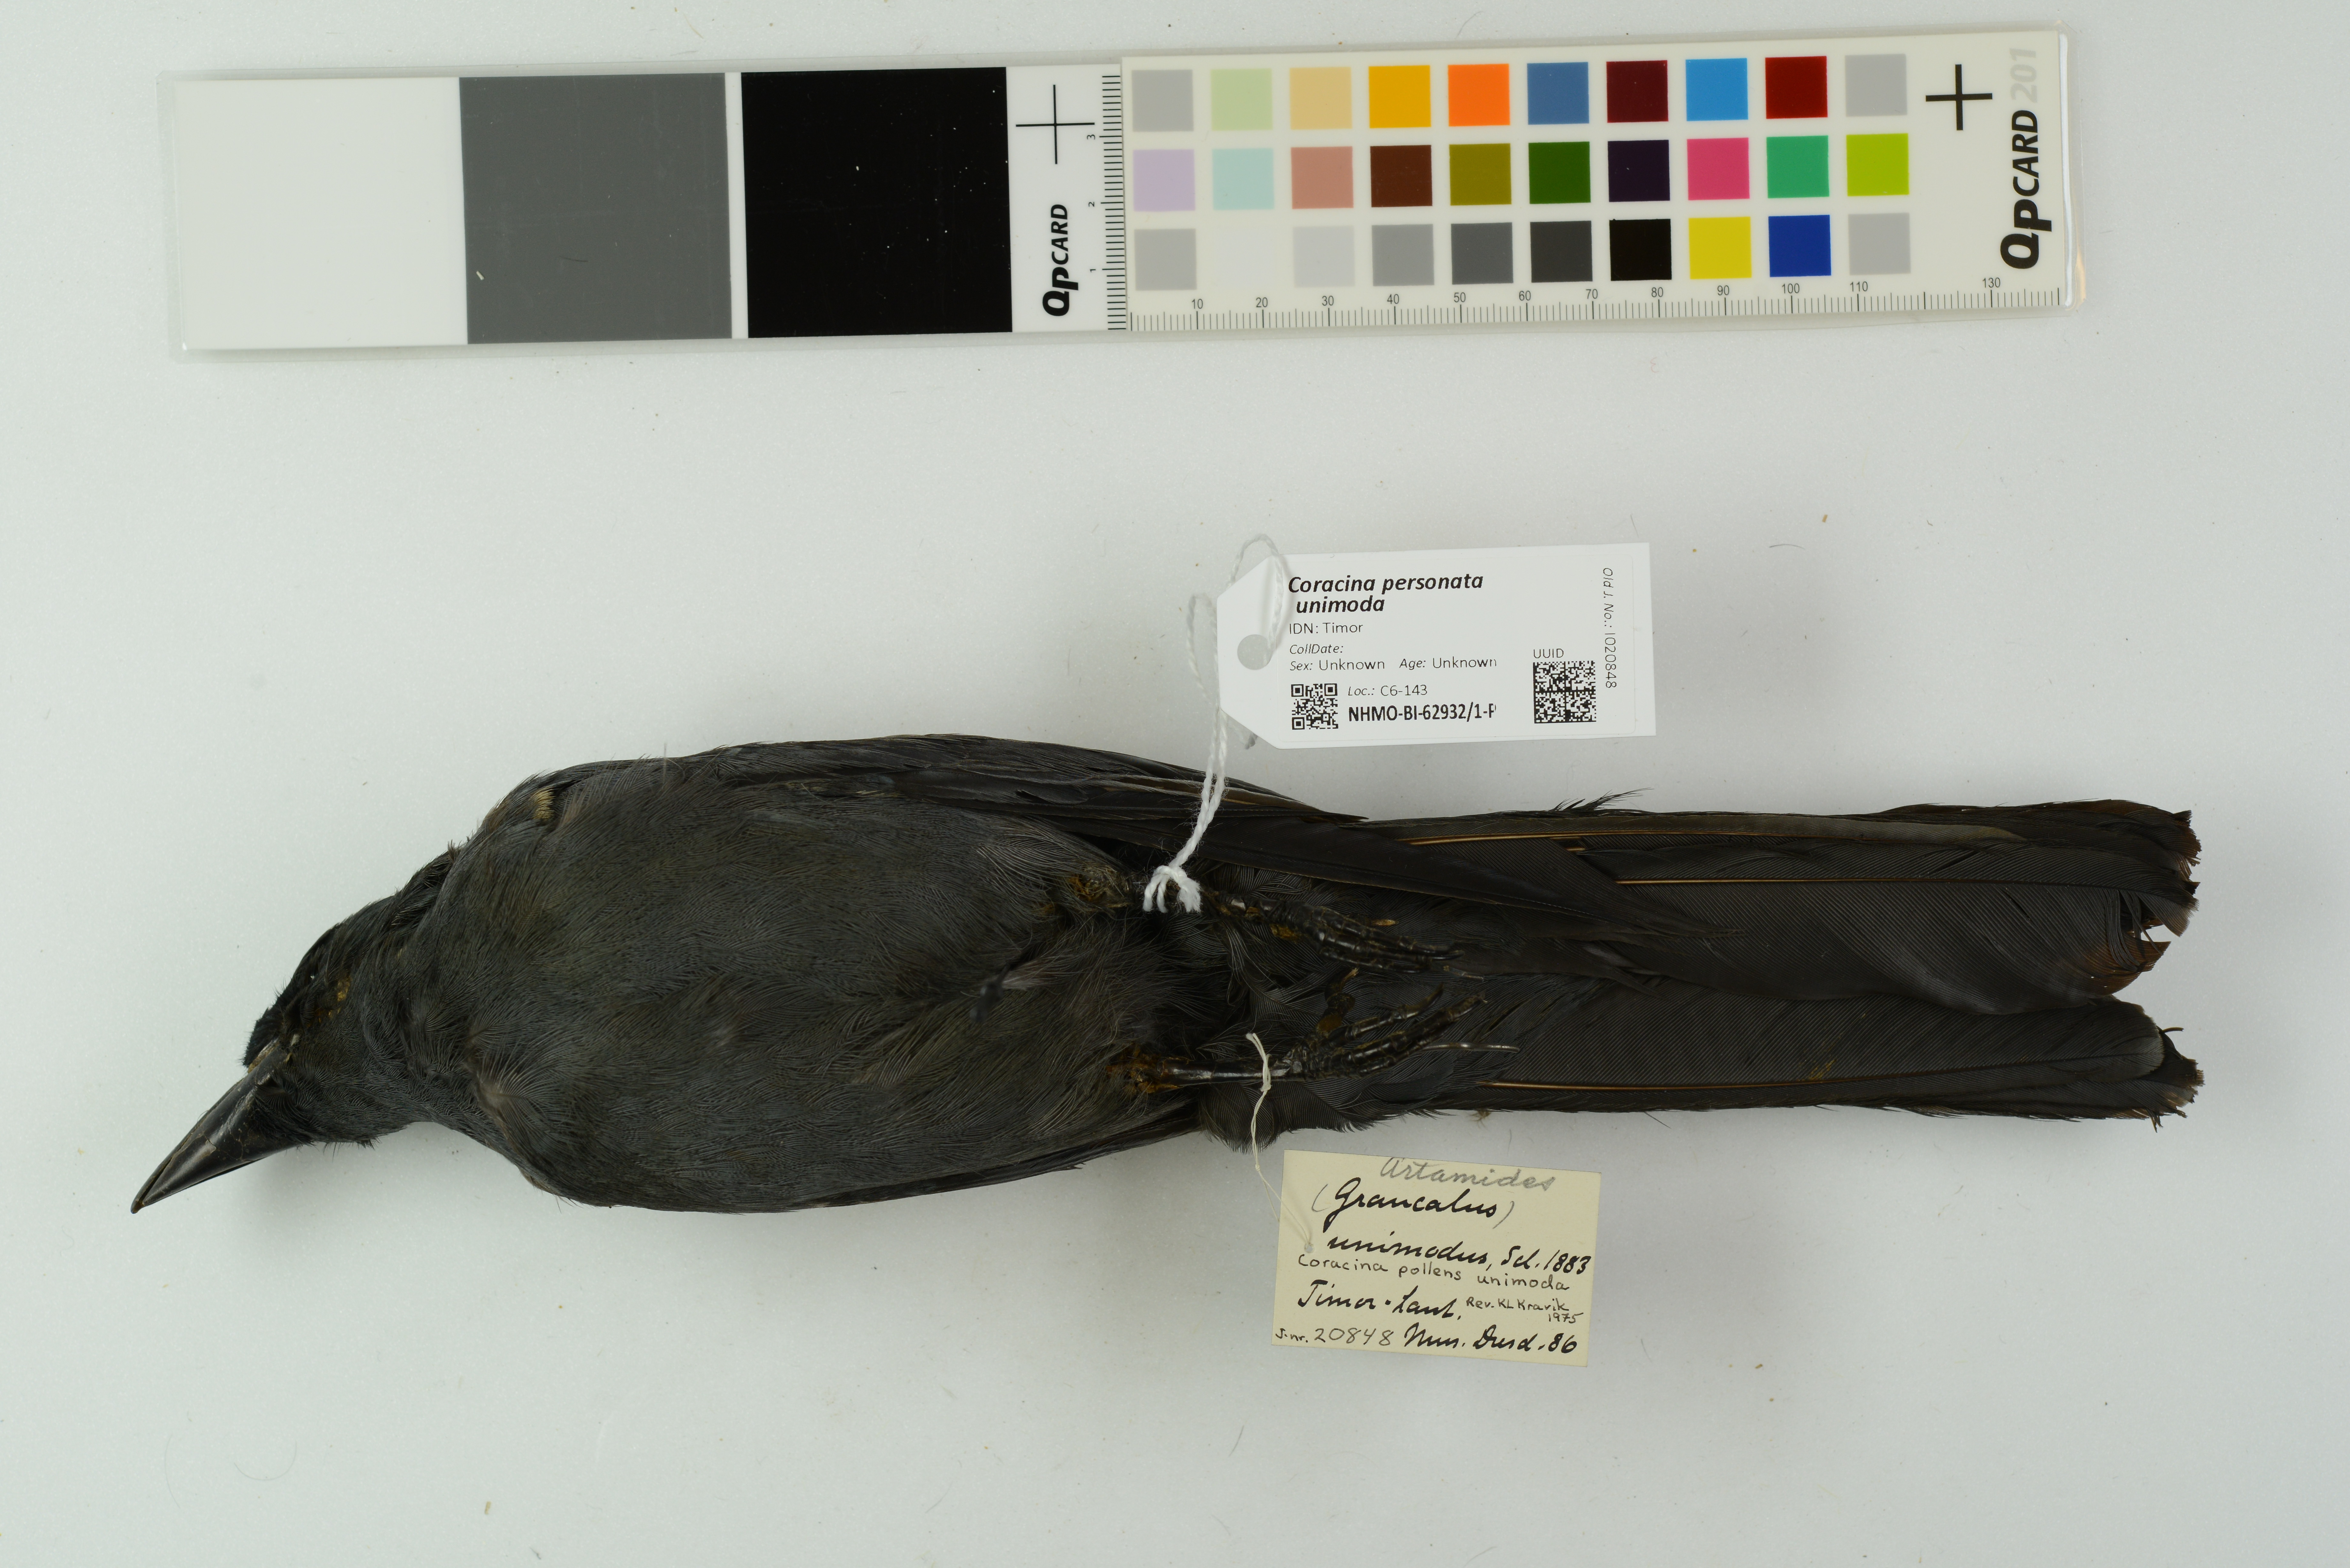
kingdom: Animalia
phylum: Chordata
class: Aves
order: Passeriformes
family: Campephagidae
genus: Coracina
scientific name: Coracina personata
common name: Wallacean cuckooshrike
